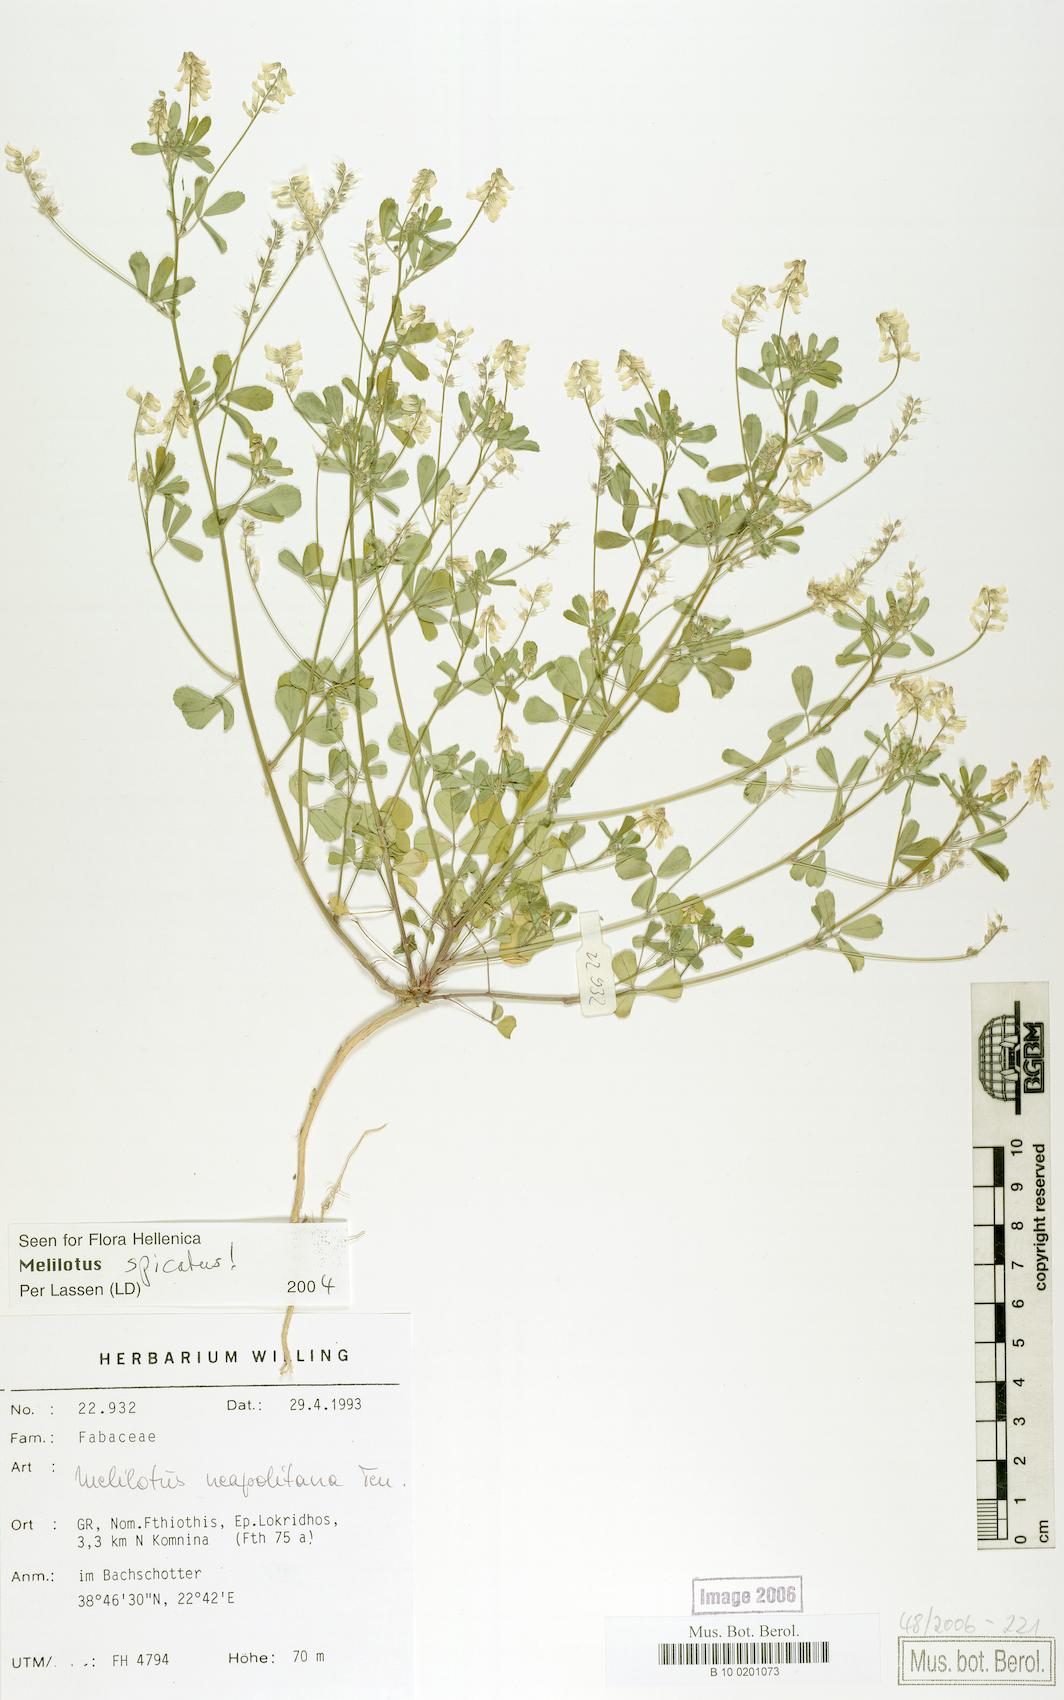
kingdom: Plantae
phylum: Tracheophyta
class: Magnoliopsida
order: Fabales
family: Fabaceae
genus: Melilotus
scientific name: Melilotus neapolitanus
